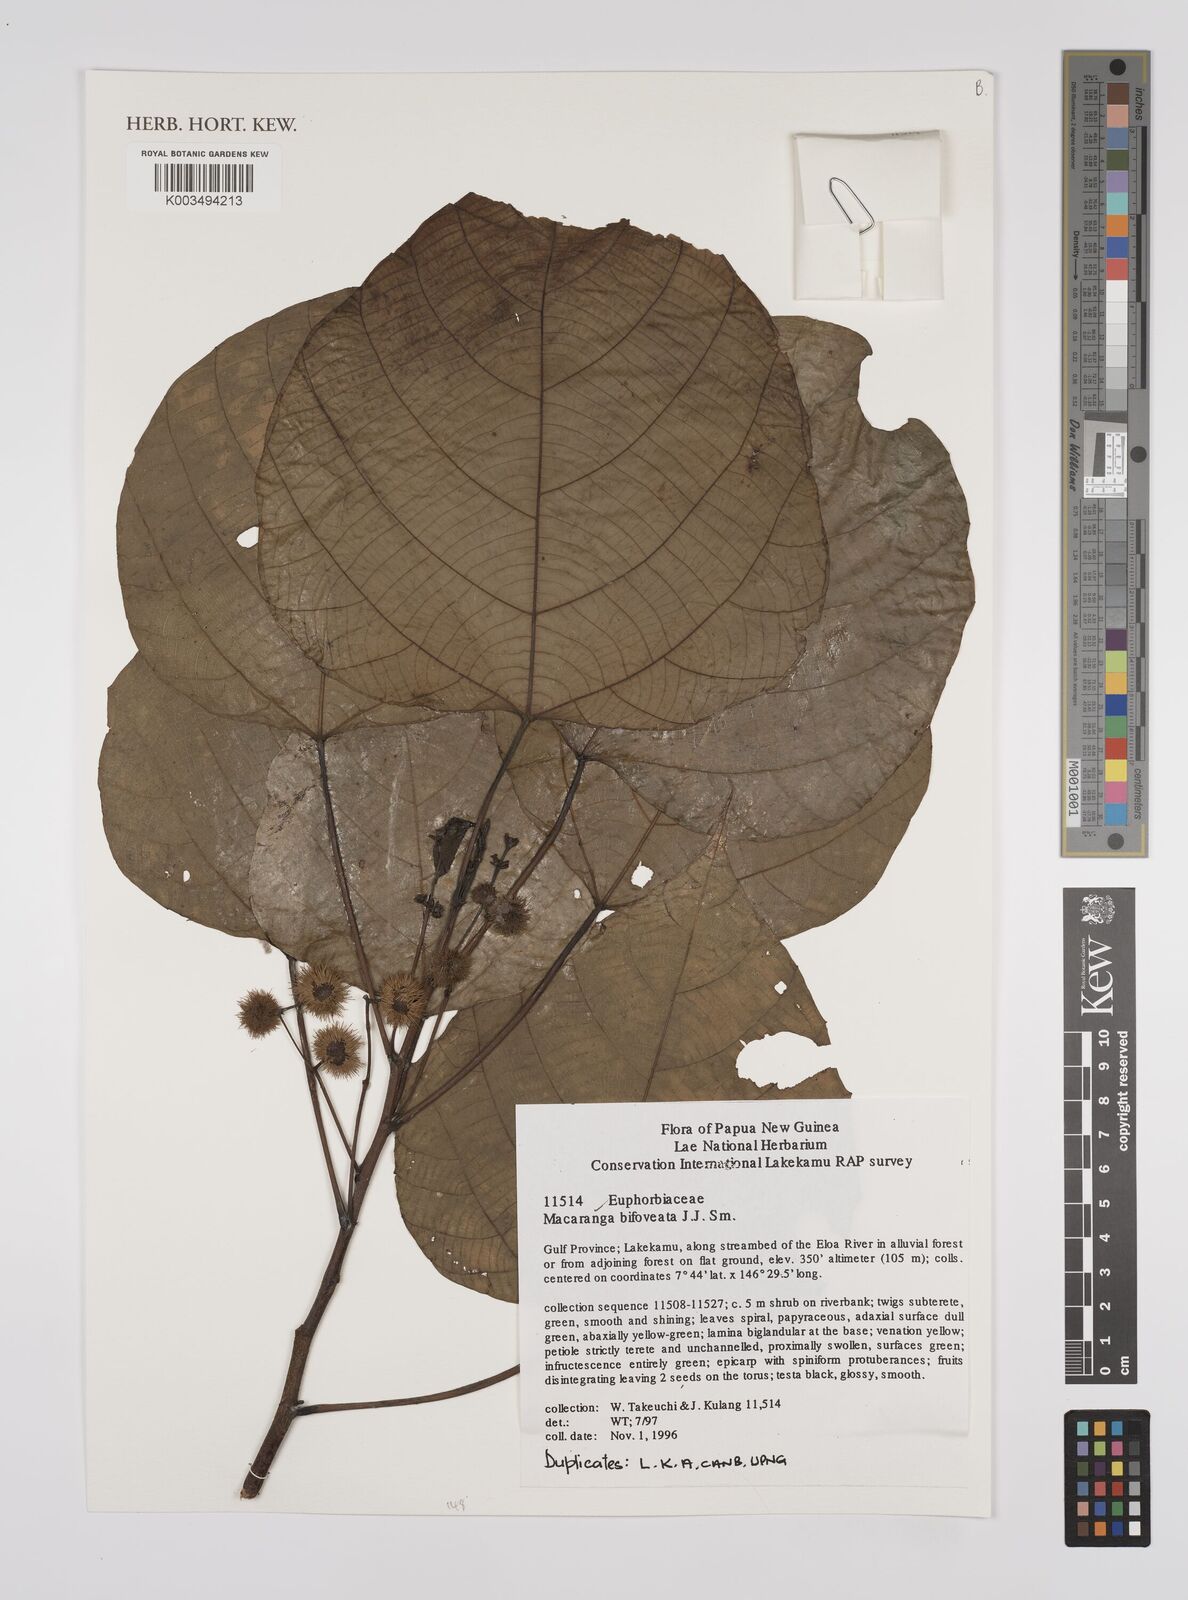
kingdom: Plantae
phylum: Tracheophyta
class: Magnoliopsida
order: Malpighiales
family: Euphorbiaceae
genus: Macaranga
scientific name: Macaranga bifoveata
